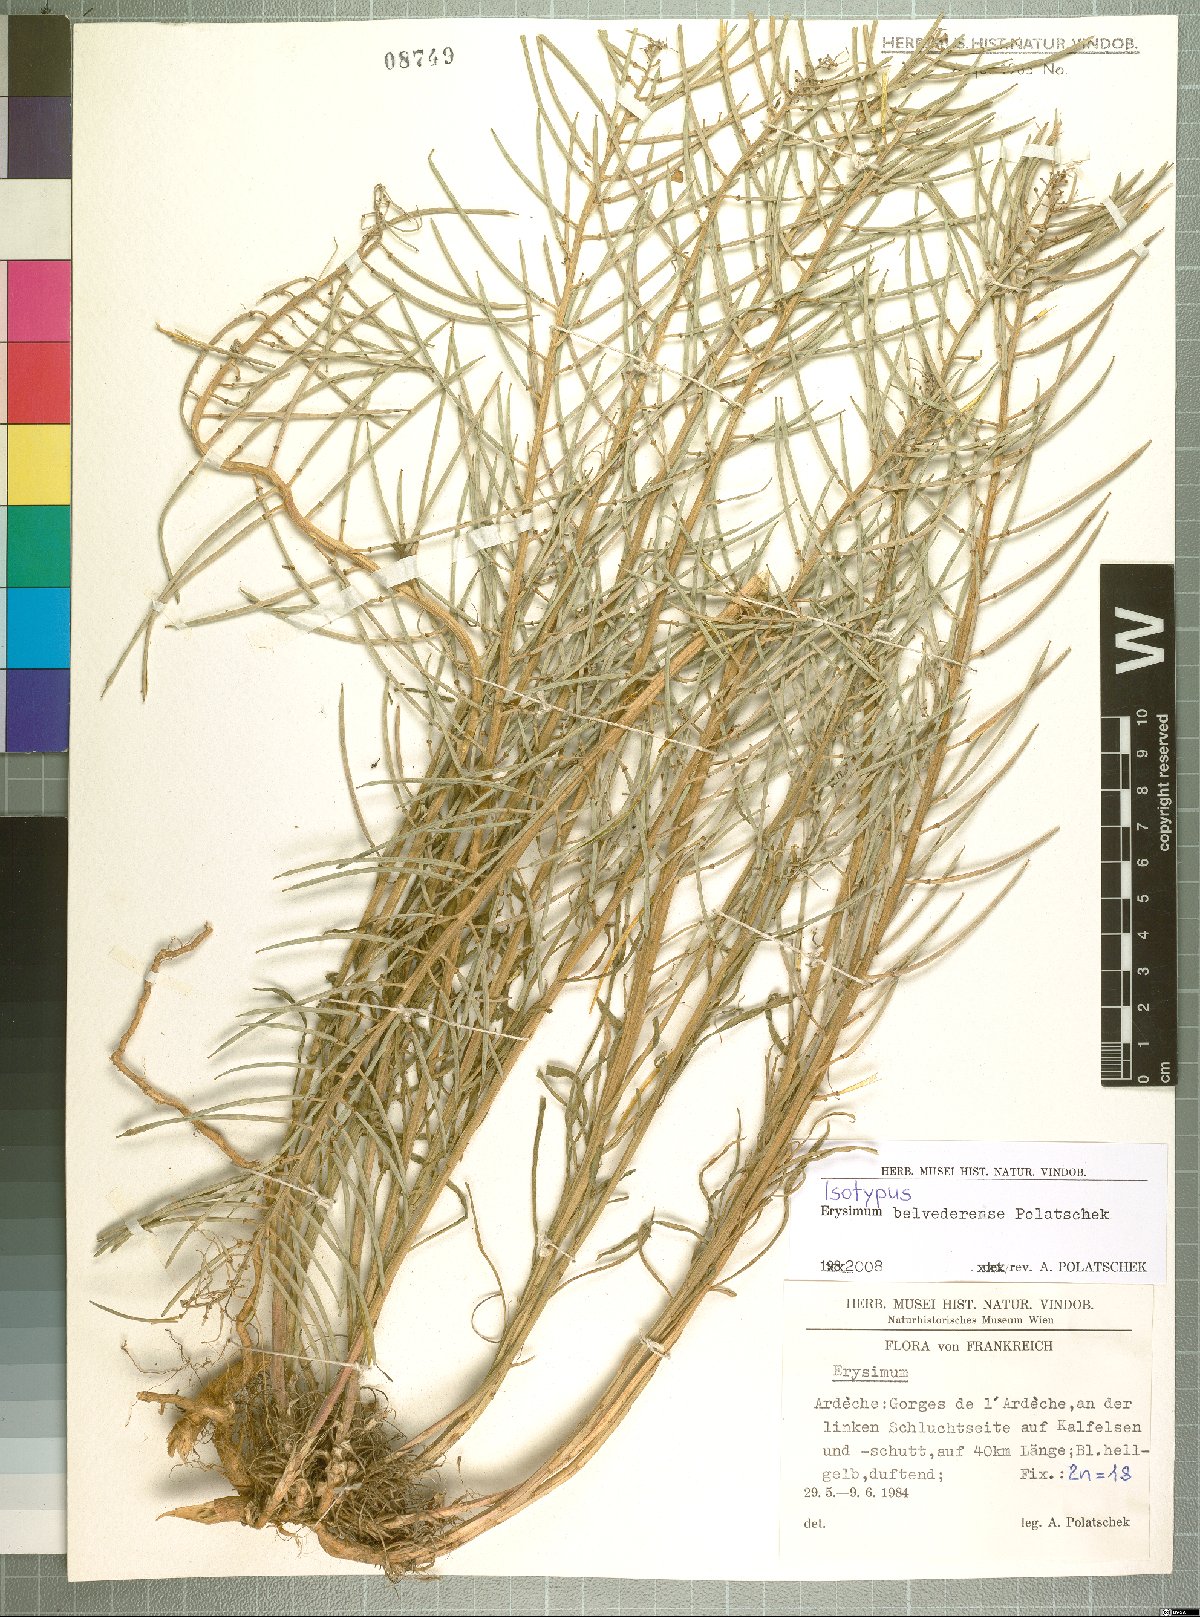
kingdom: Plantae
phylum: Tracheophyta
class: Magnoliopsida
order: Brassicales
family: Brassicaceae
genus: Erysimum
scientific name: Erysimum belvederense
